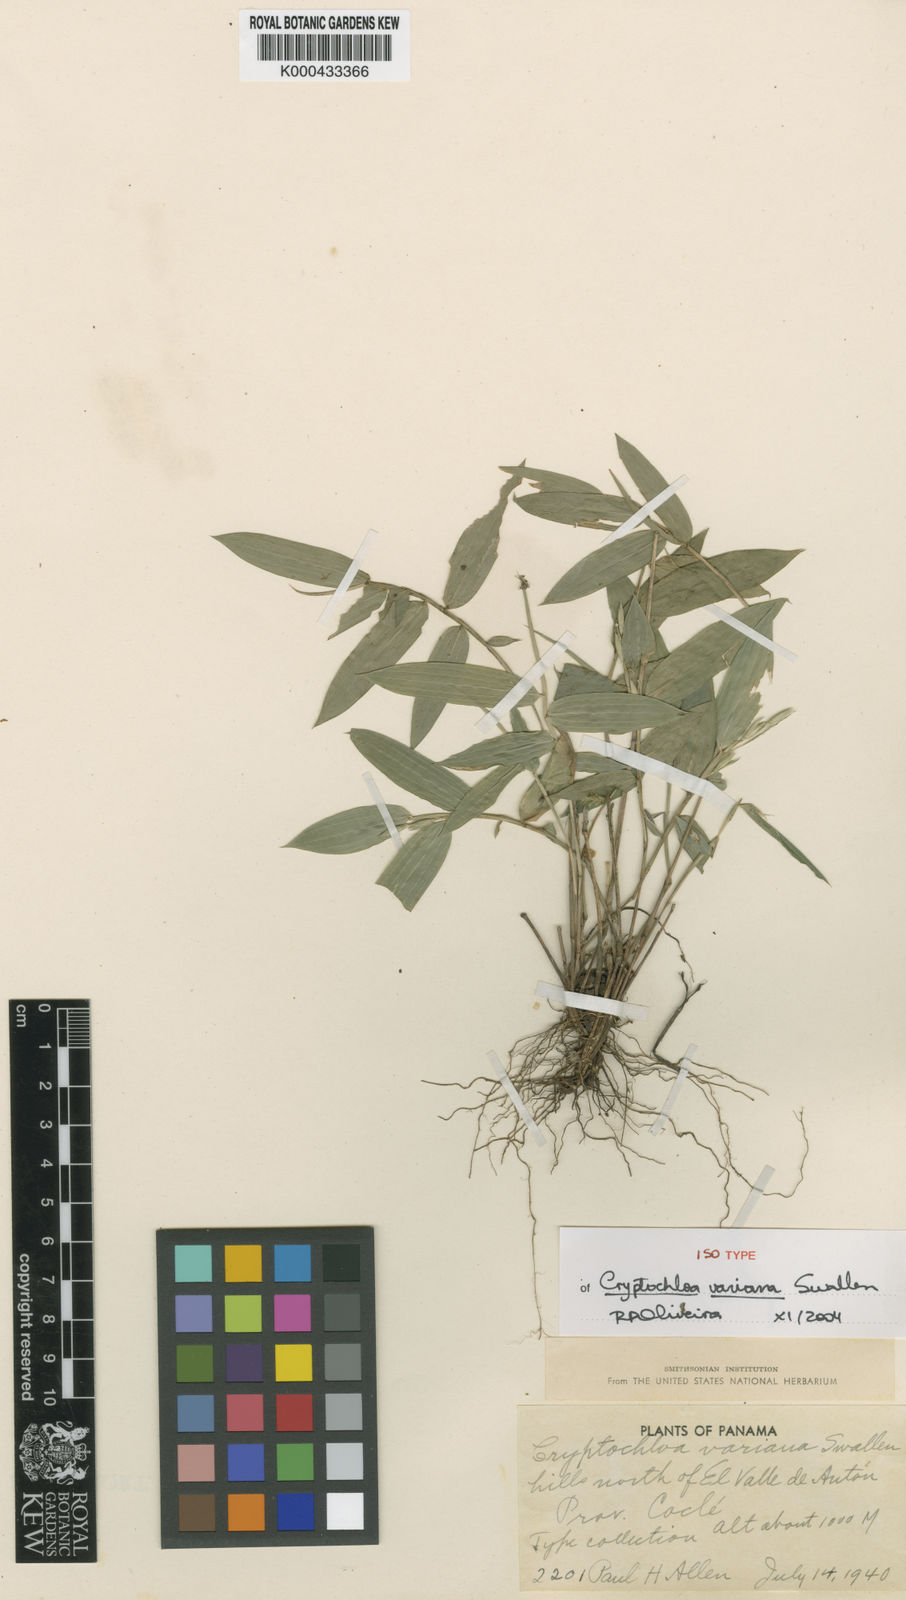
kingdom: Plantae
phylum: Tracheophyta
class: Liliopsida
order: Poales
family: Poaceae
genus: Cryptochloa
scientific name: Cryptochloa variana
